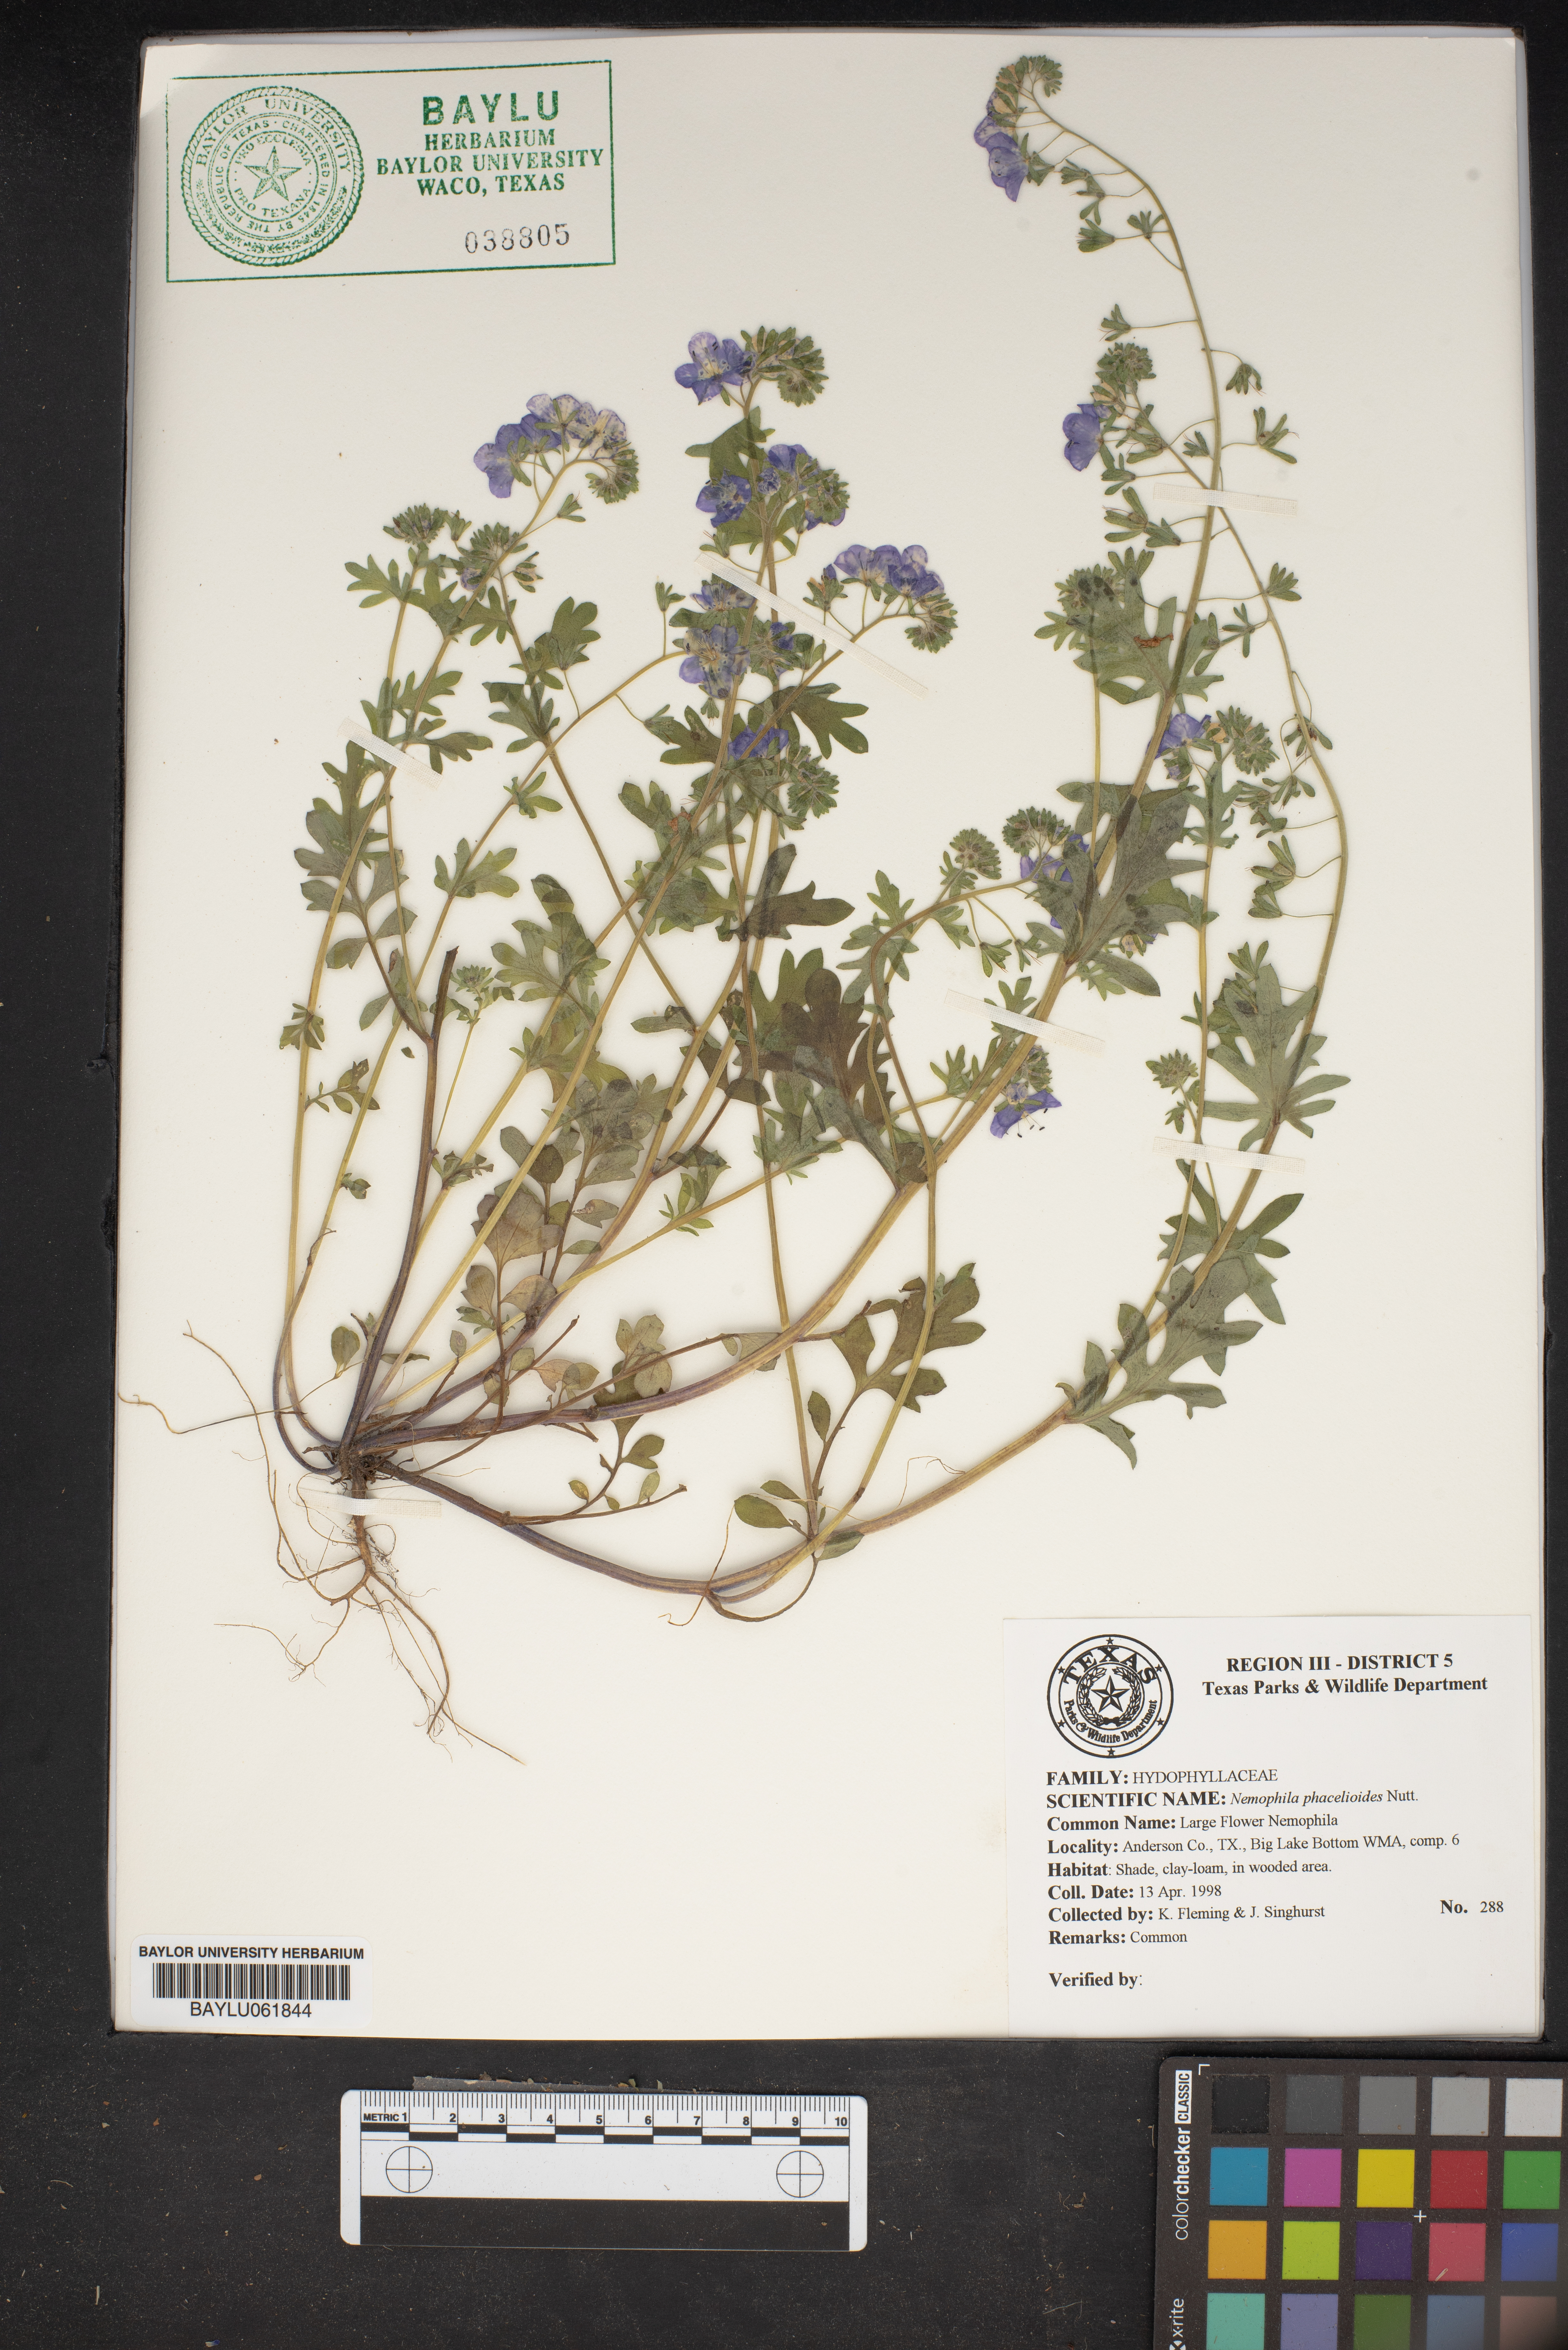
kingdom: Plantae
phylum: Tracheophyta
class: Magnoliopsida
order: Boraginales
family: Hydrophyllaceae
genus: Nemophila
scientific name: Nemophila phacelioides
